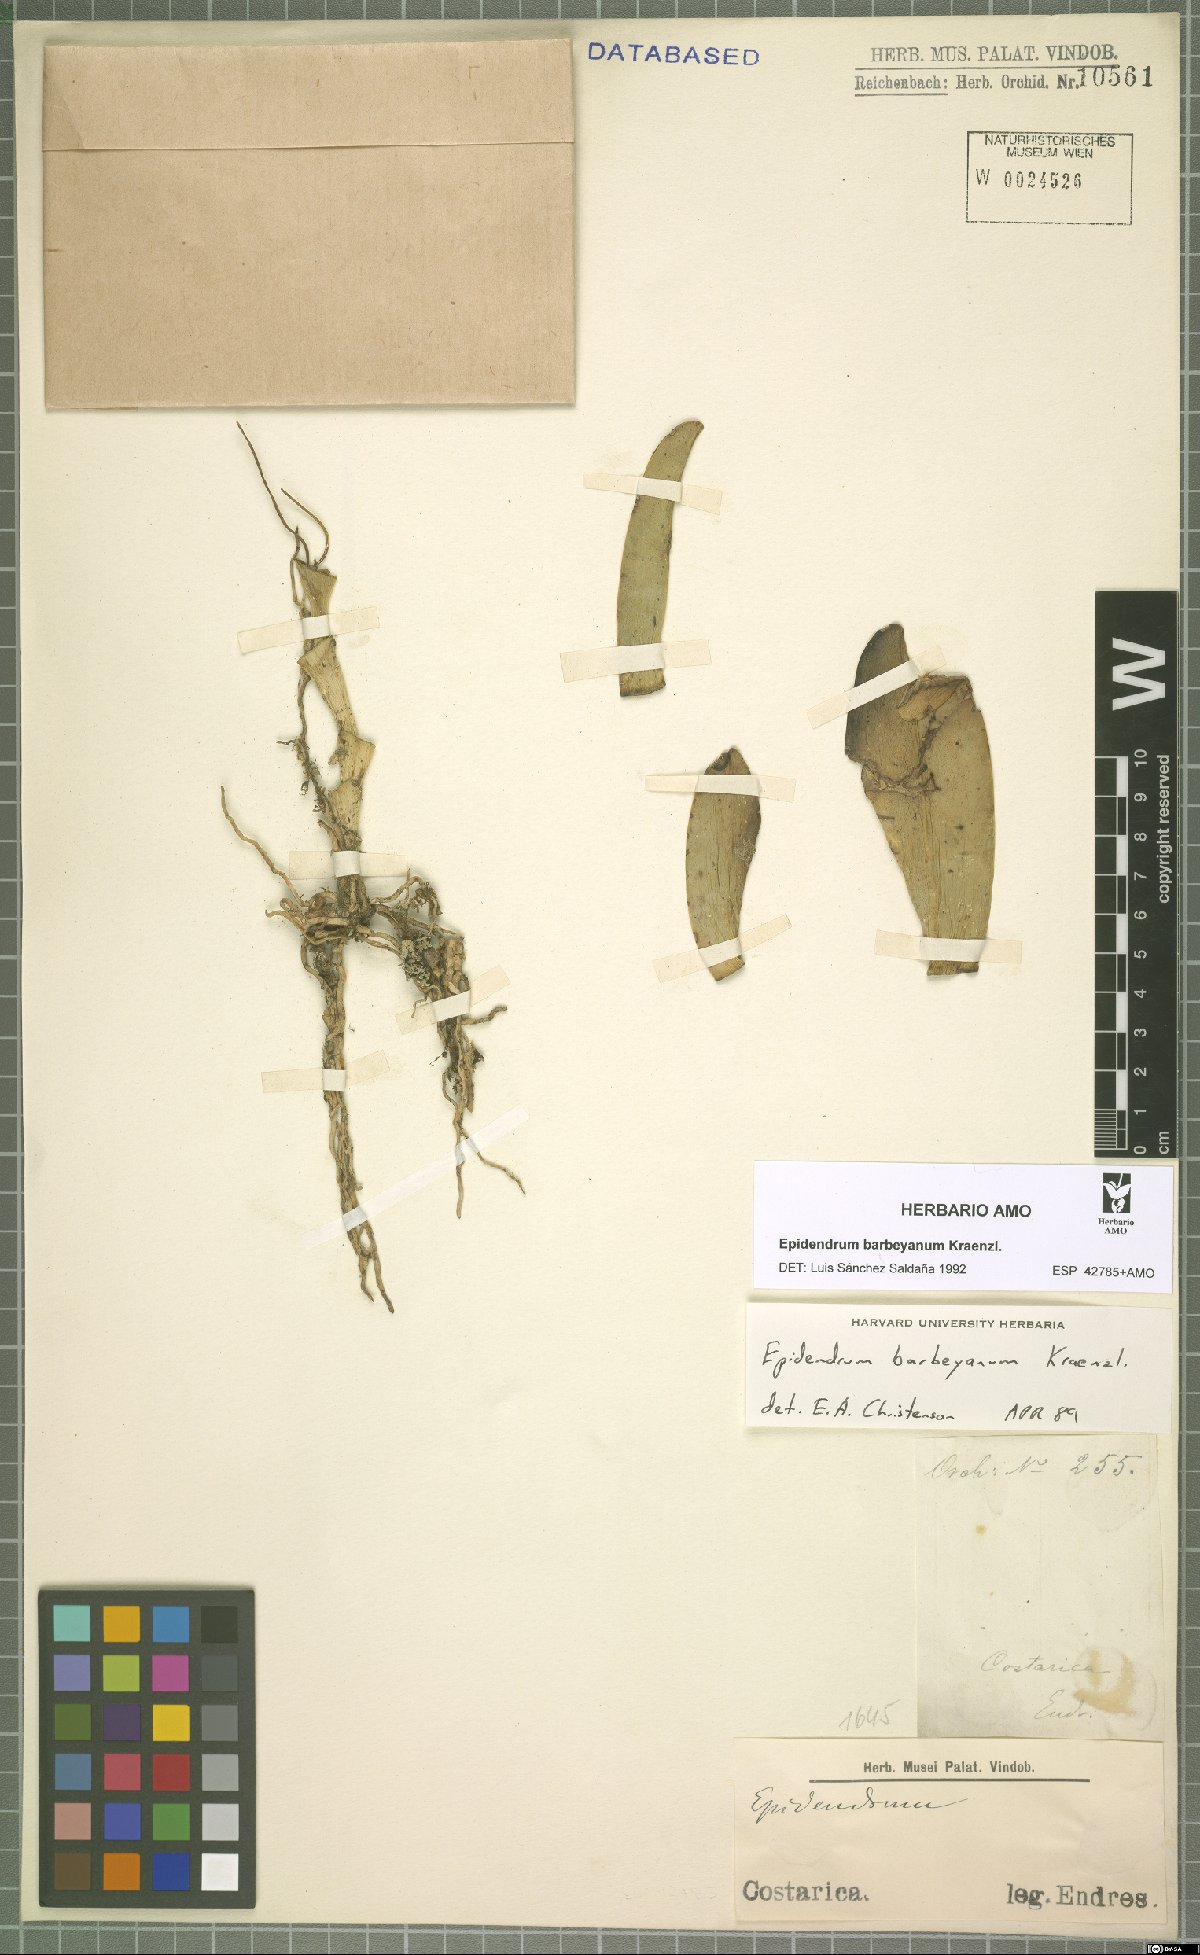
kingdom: Plantae
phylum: Tracheophyta
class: Liliopsida
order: Asparagales
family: Orchidaceae
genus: Epidendrum
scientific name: Epidendrum barbeyanum
